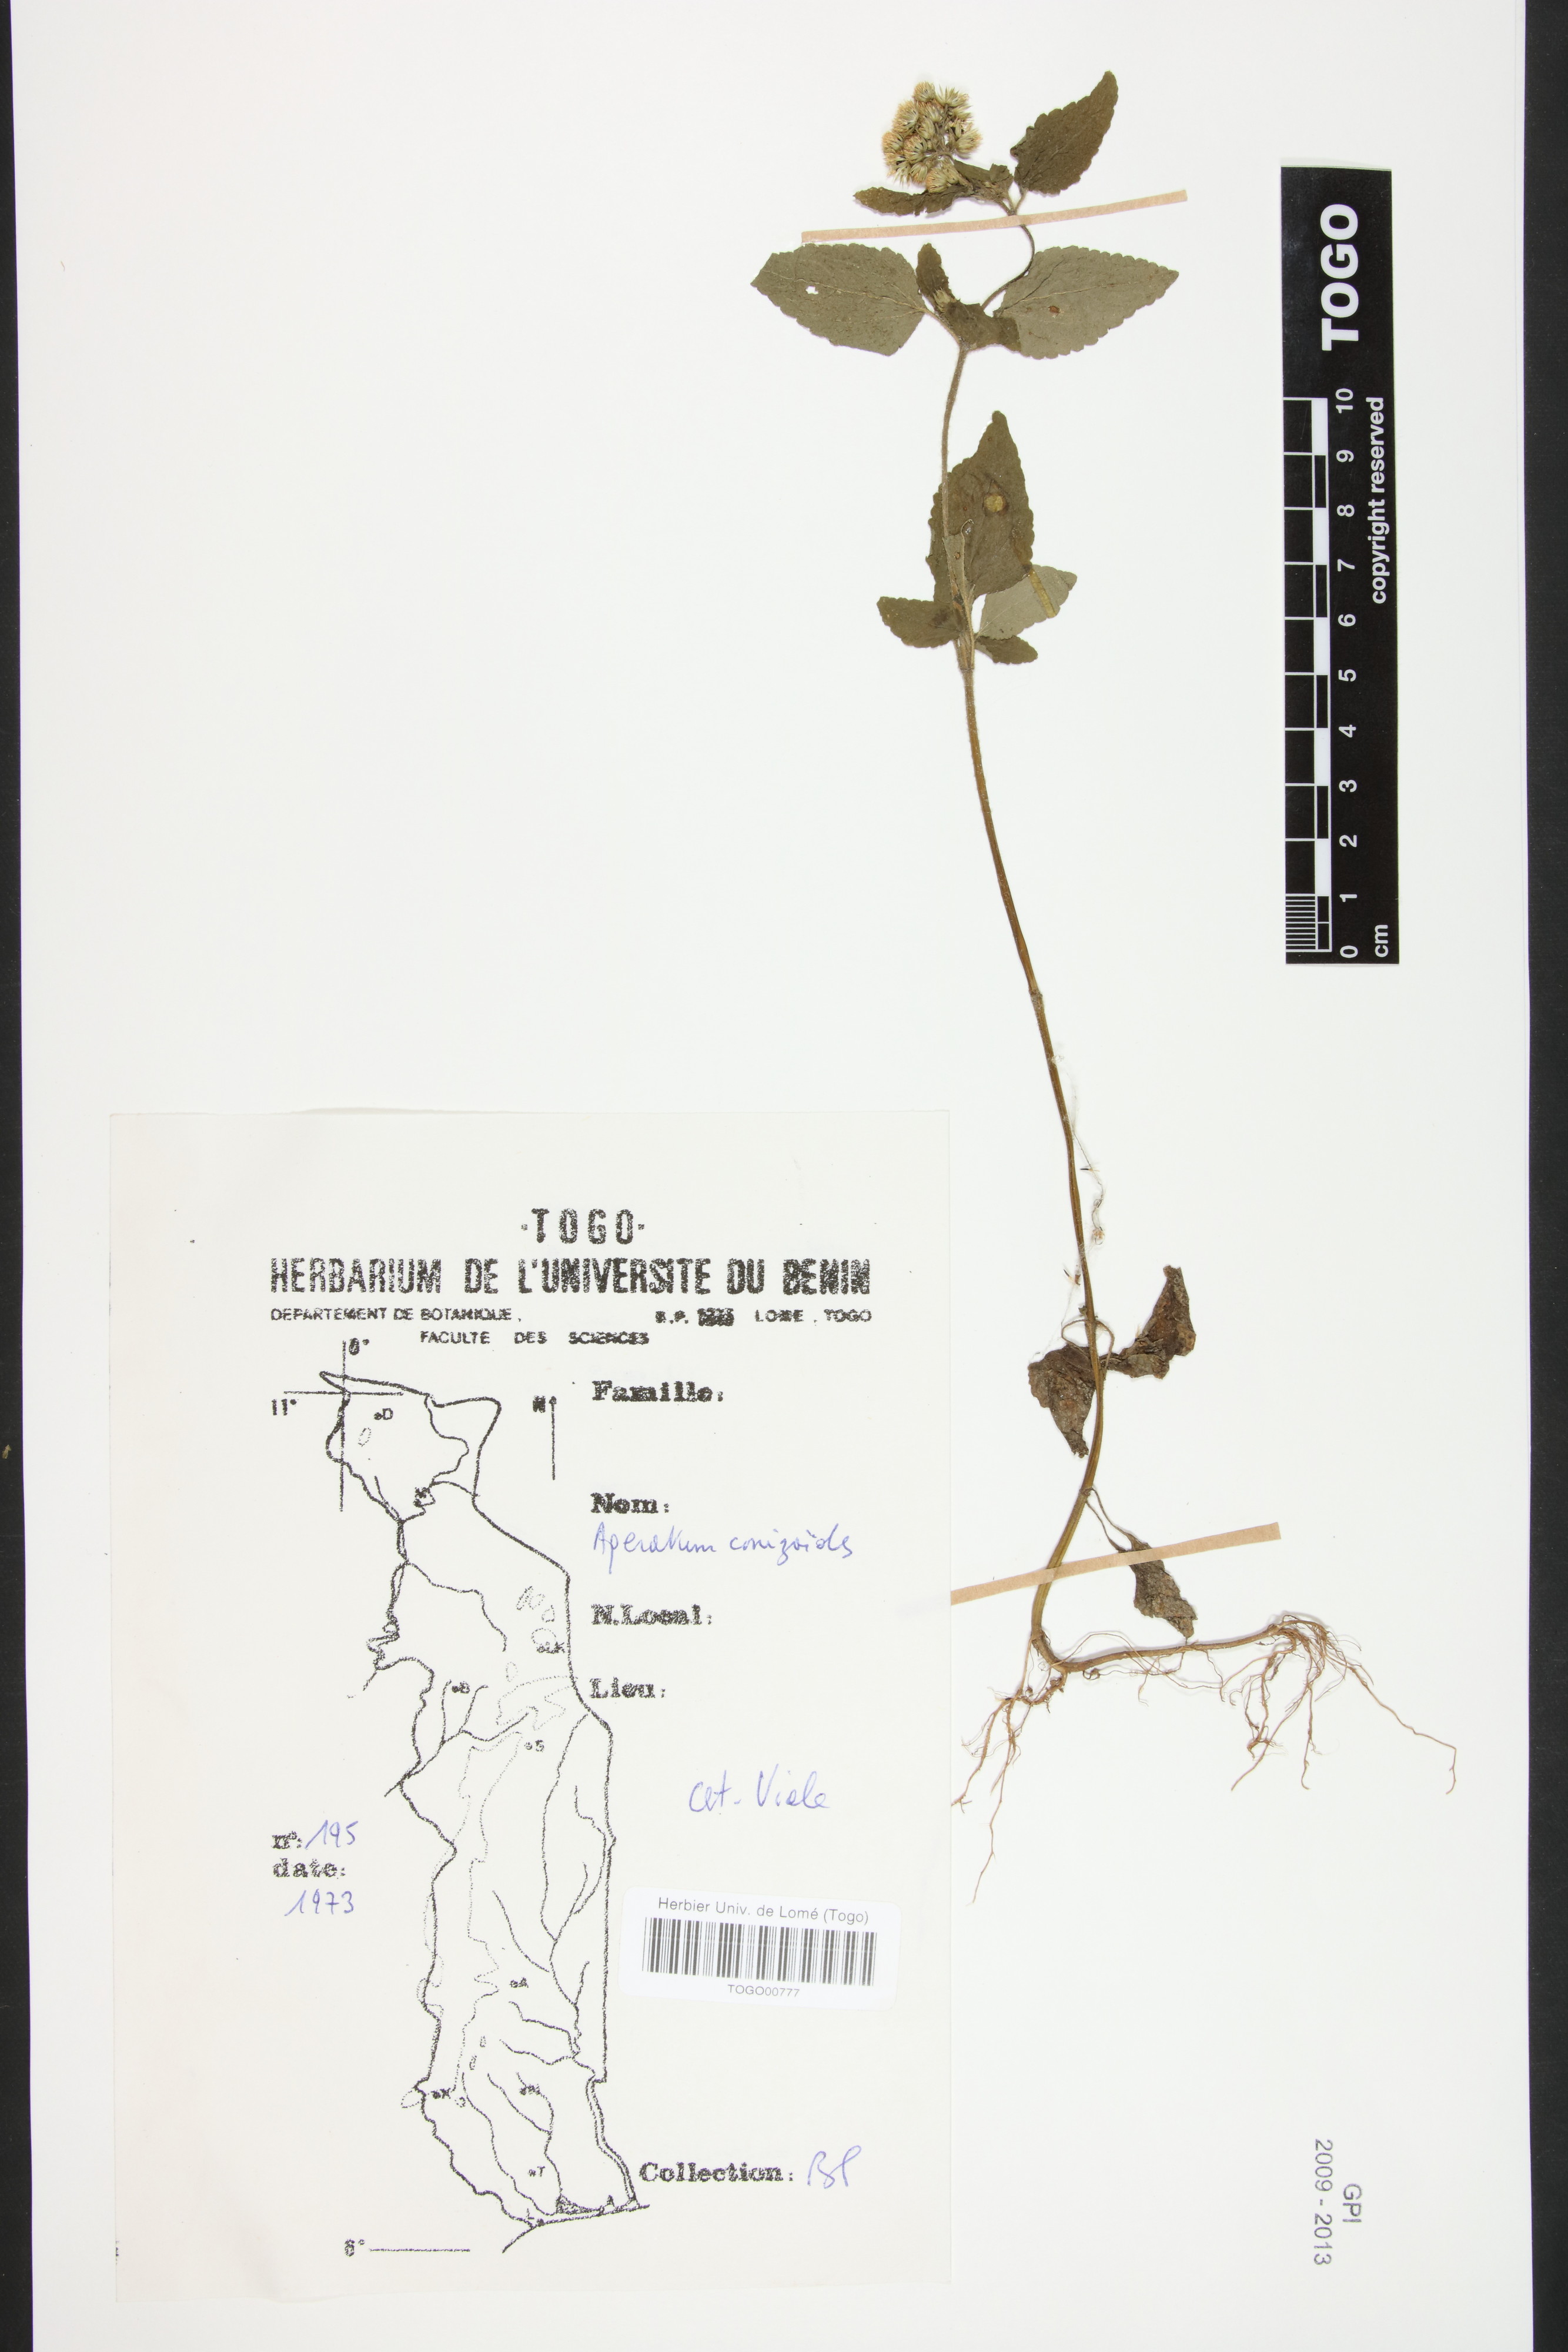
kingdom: Plantae
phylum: Tracheophyta
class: Magnoliopsida
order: Asterales
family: Asteraceae
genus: Ageratum
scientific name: Ageratum conyzoides
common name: Tropical whiteweed
